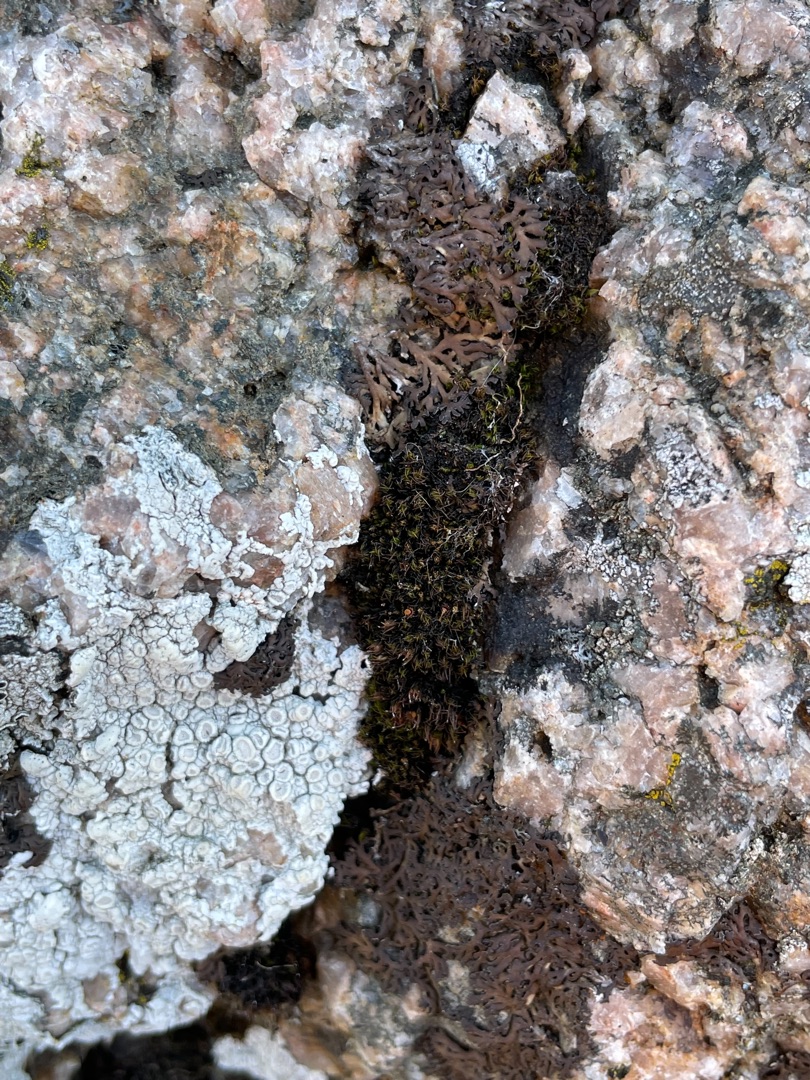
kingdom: Plantae
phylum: Bryophyta
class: Bryopsida
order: Grimmiales
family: Grimmiaceae
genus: Schistidium
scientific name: Schistidium maritimum
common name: Strand-strålekransmos
